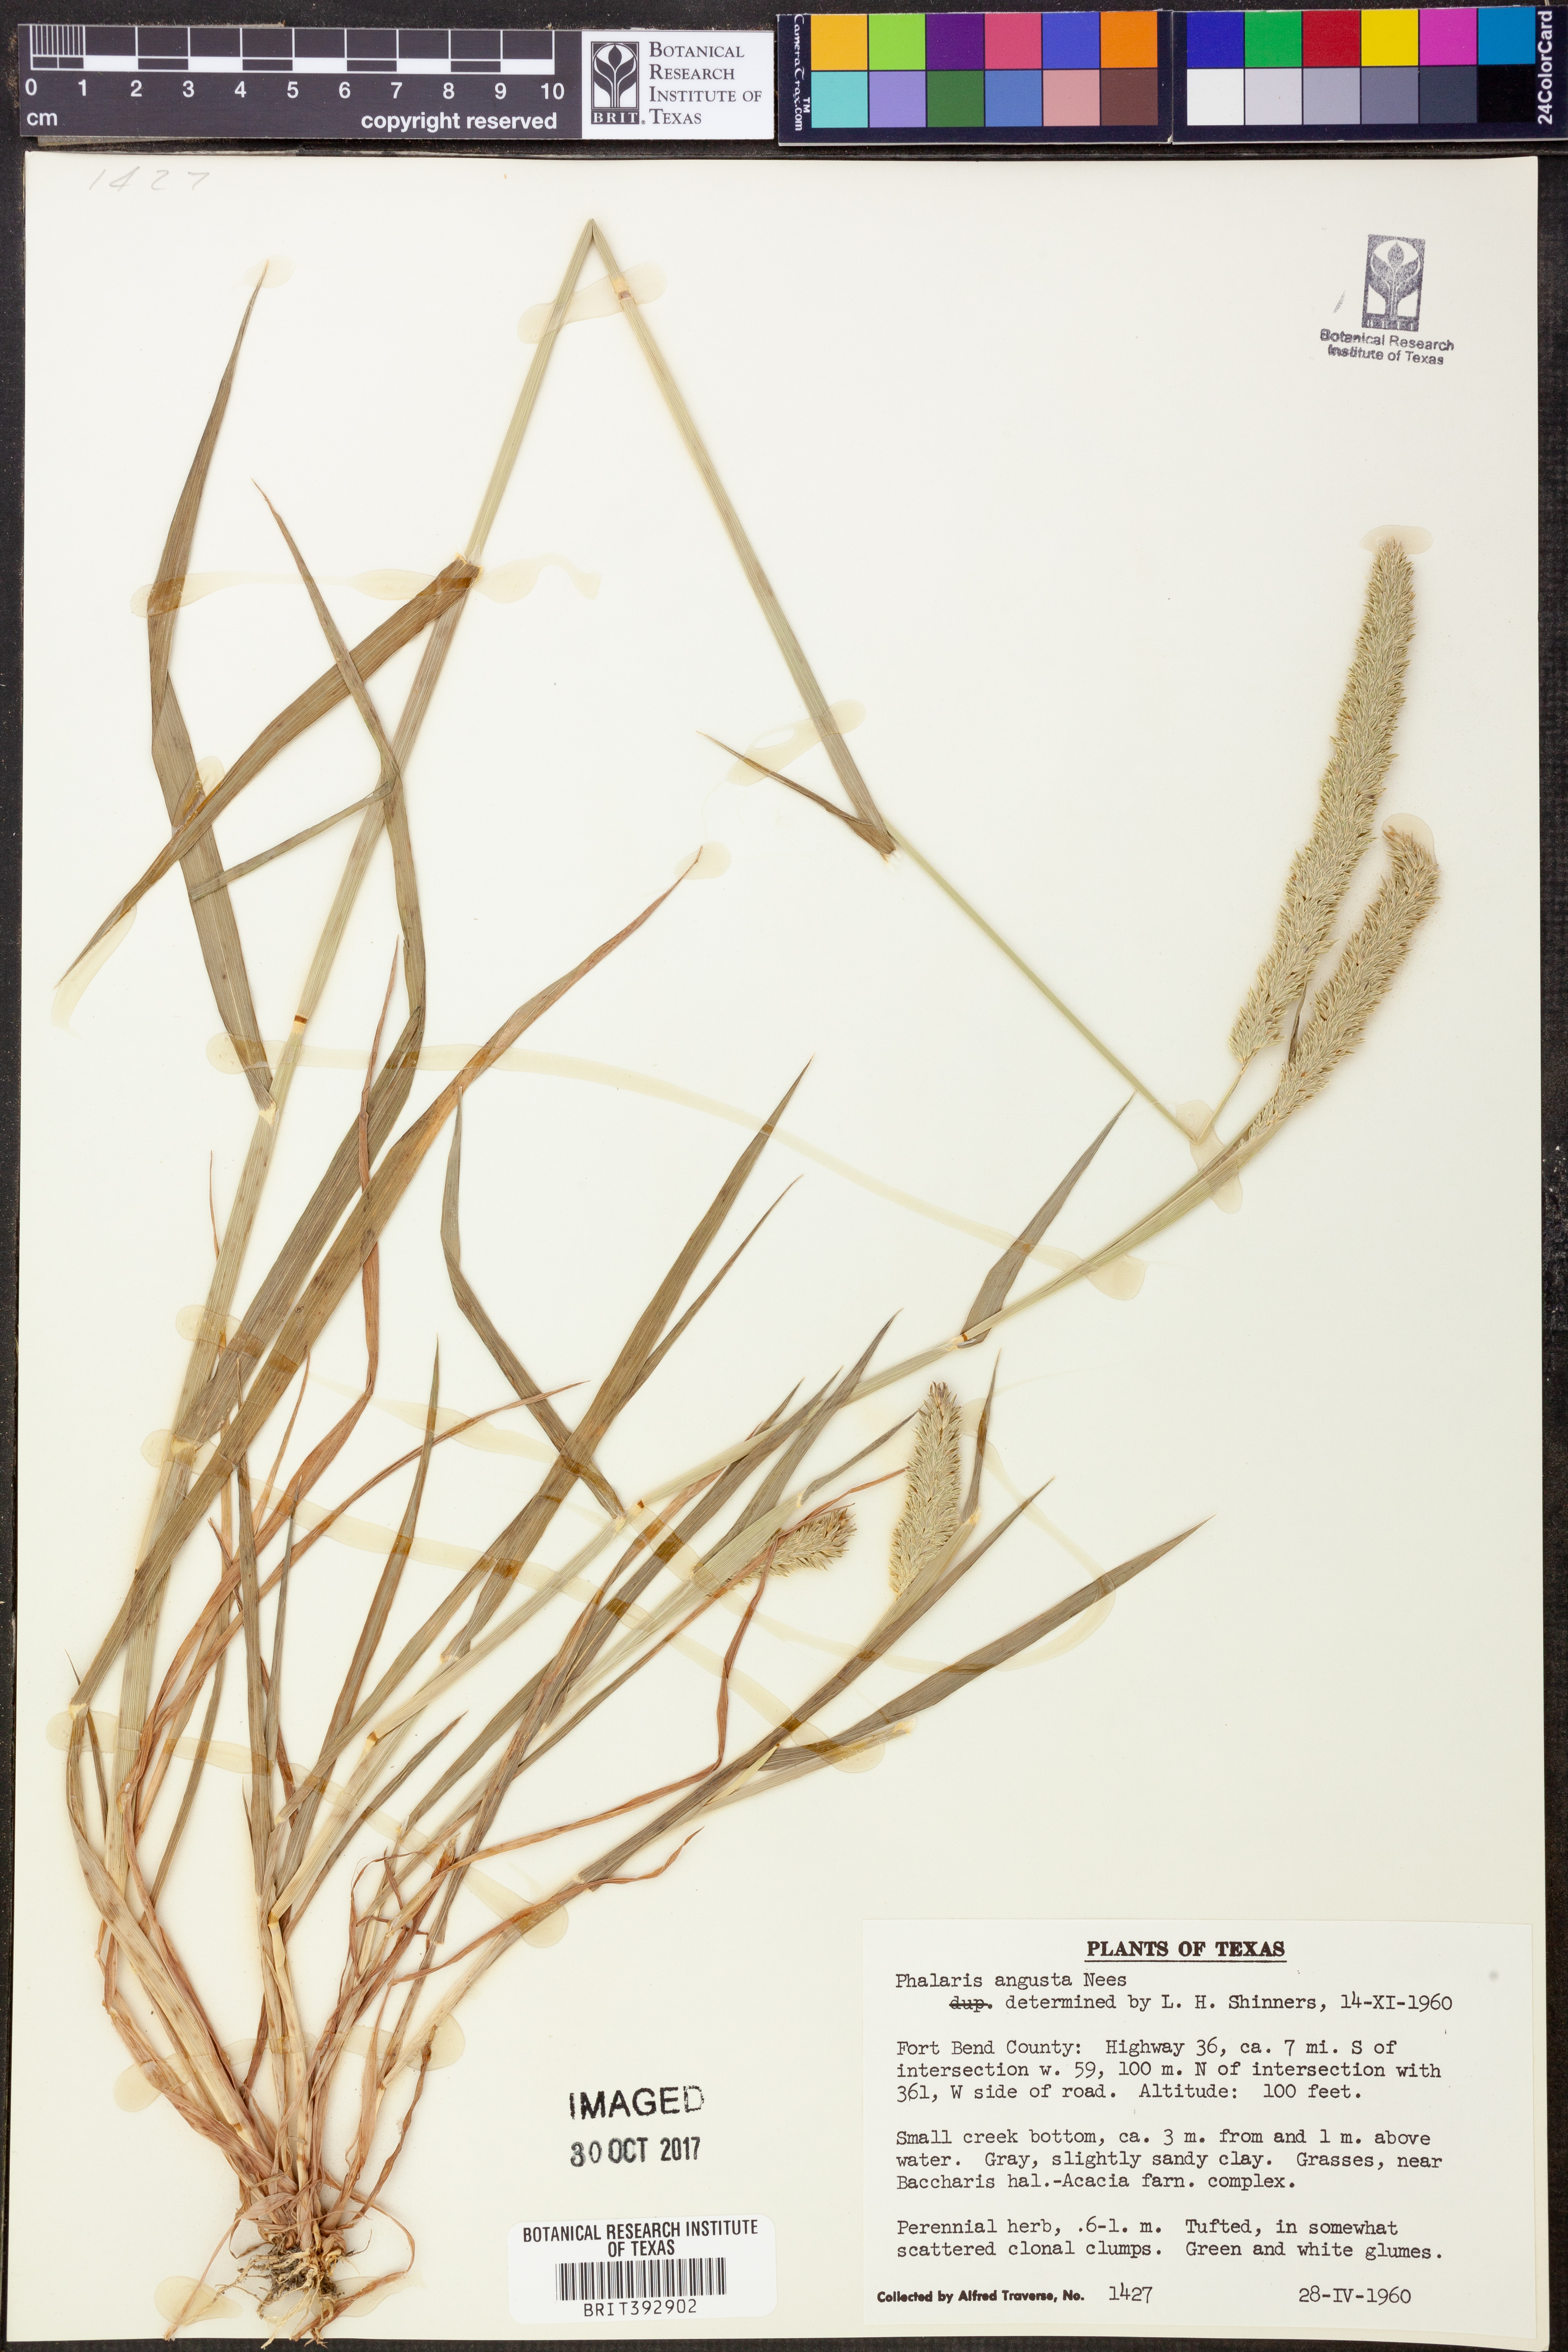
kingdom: Plantae
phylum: Tracheophyta
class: Liliopsida
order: Poales
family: Poaceae
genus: Phalaris
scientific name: Phalaris angusta
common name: Narrow canary grass
